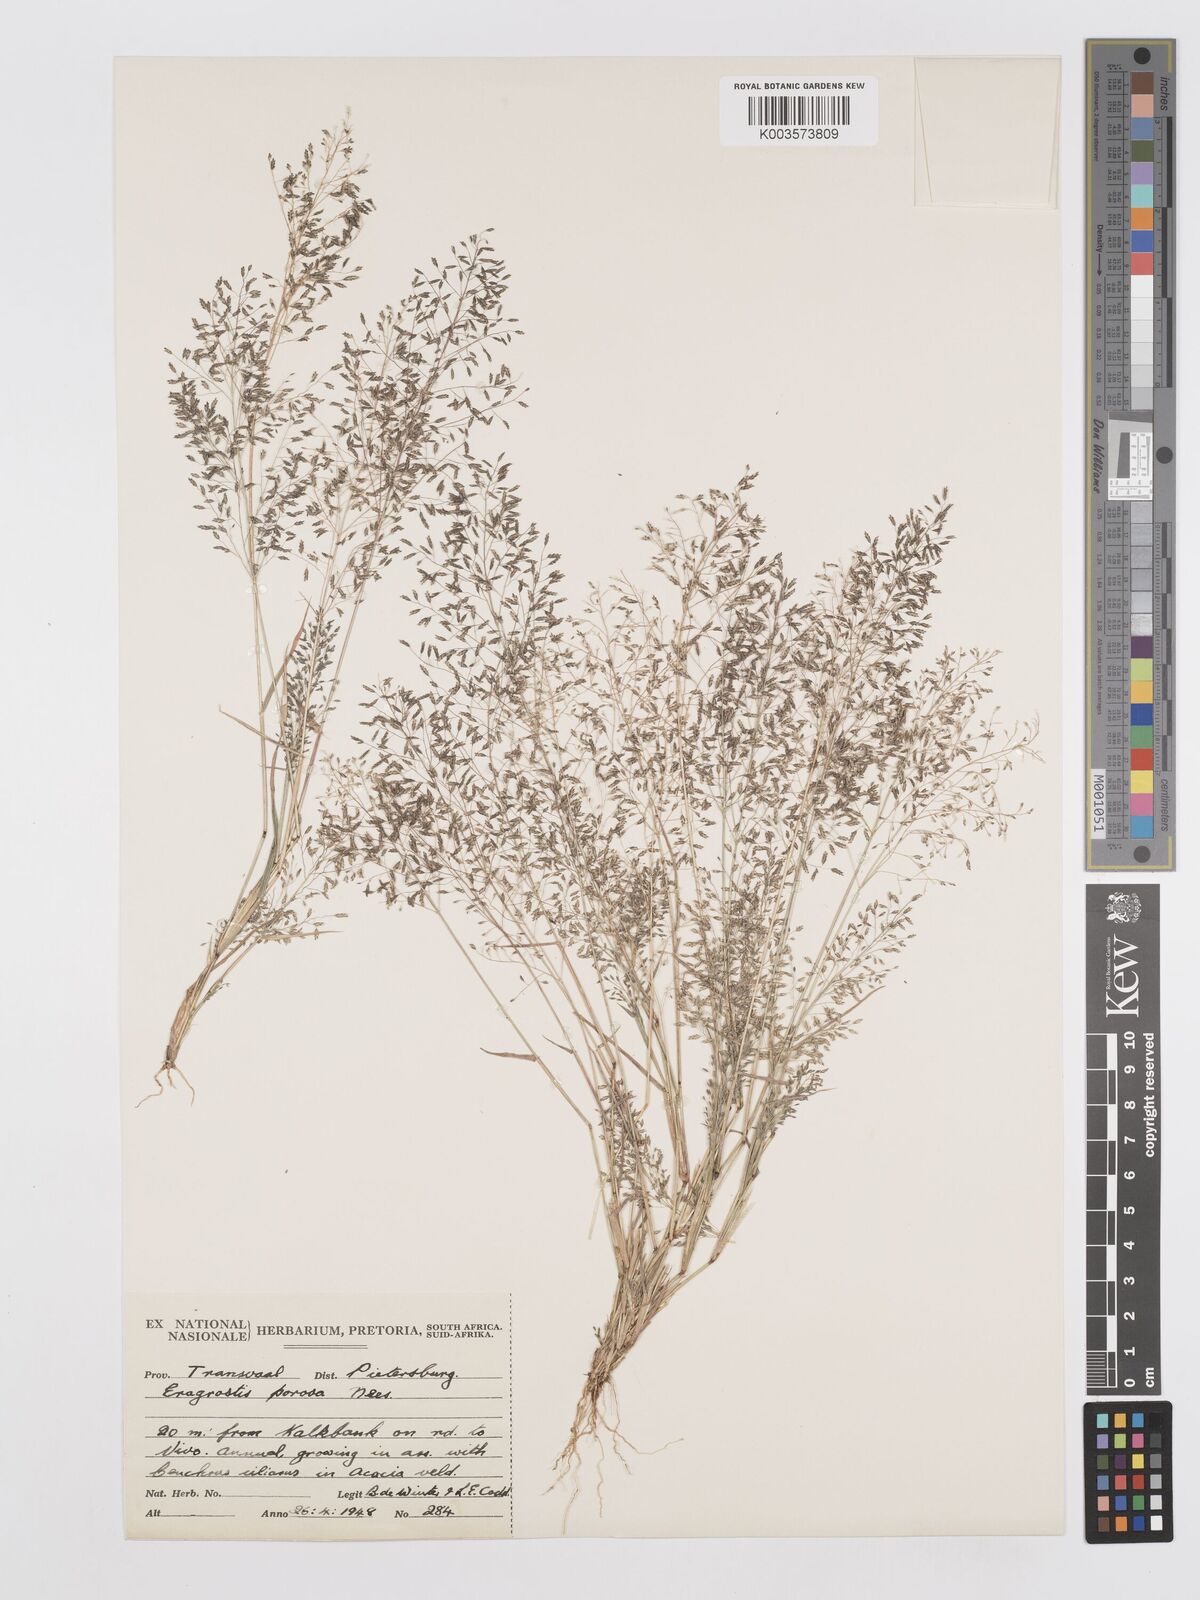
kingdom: Plantae
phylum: Tracheophyta
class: Liliopsida
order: Poales
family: Poaceae
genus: Eragrostis
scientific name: Eragrostis porosa
